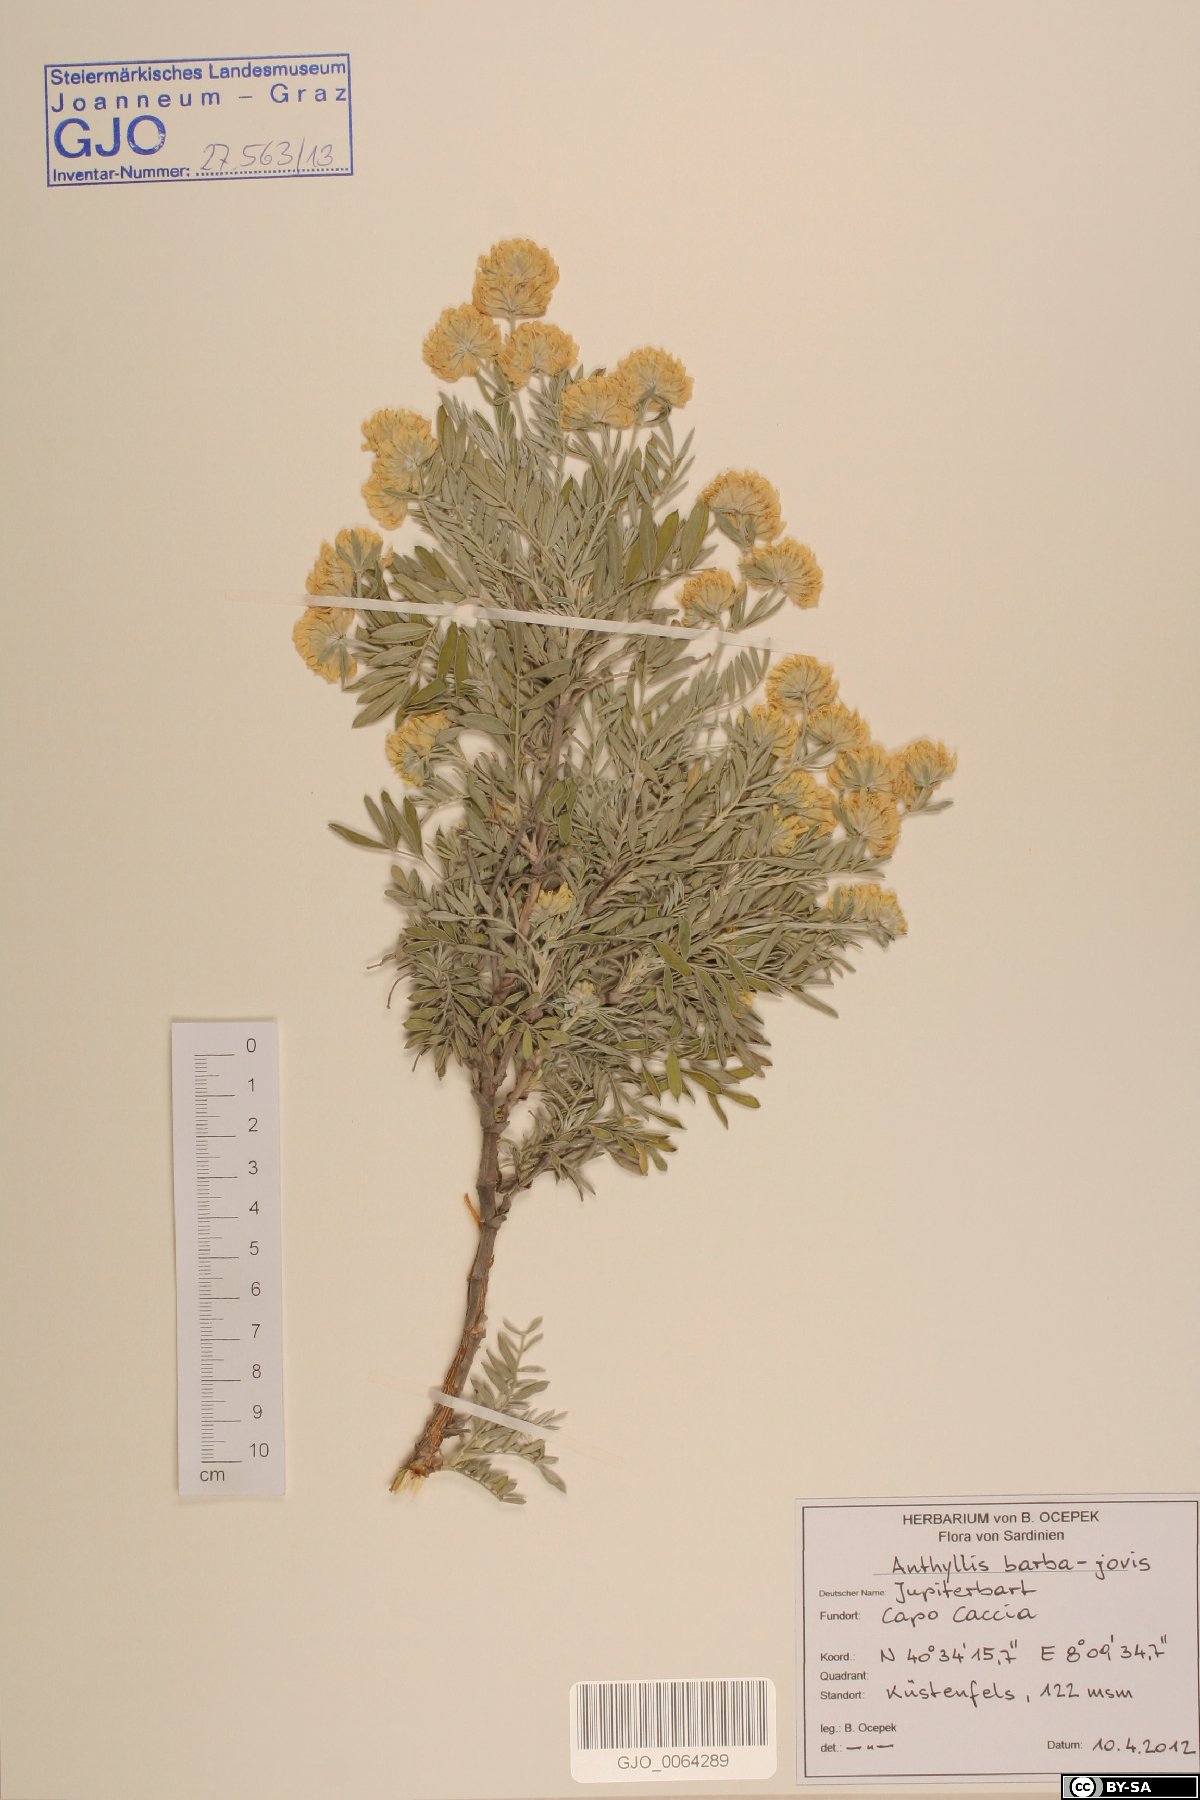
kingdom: Plantae
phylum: Tracheophyta
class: Magnoliopsida
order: Fabales
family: Fabaceae
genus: Anthyllis
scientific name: Anthyllis barba-jovis
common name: Jupiter's-beard
